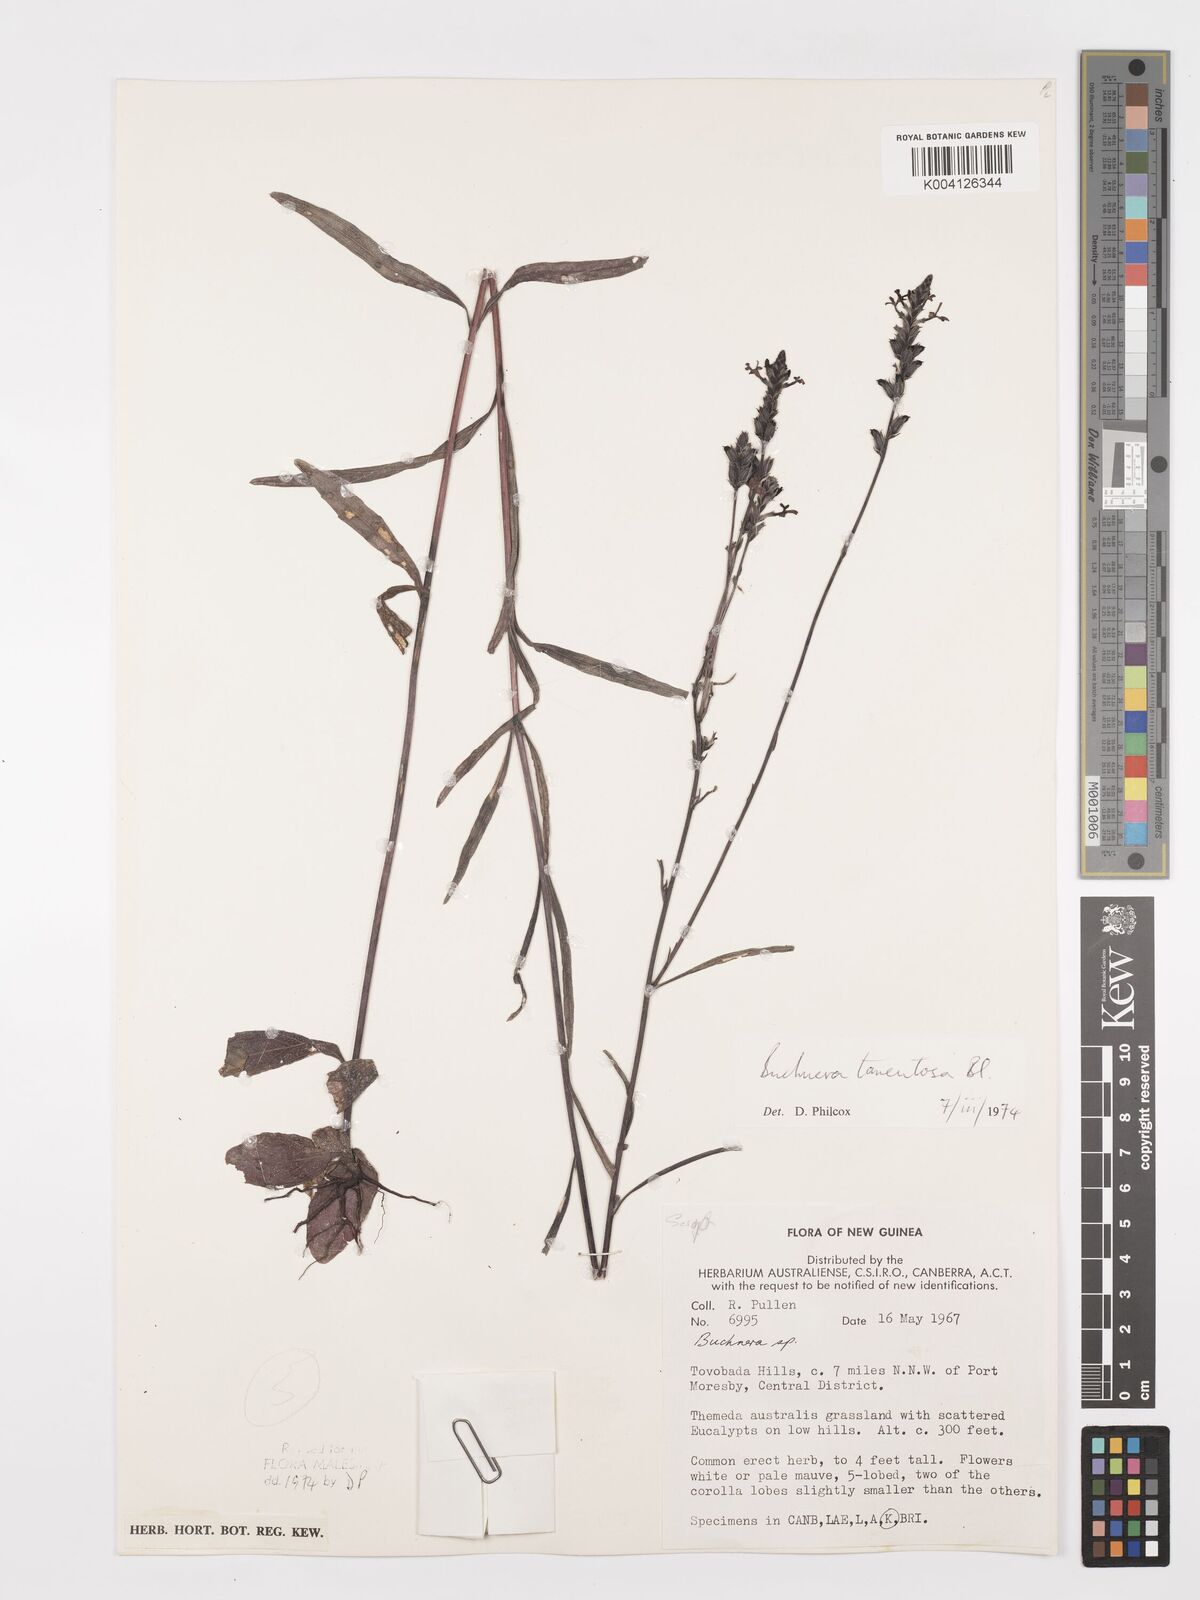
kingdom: Plantae
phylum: Tracheophyta
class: Magnoliopsida
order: Lamiales
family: Orobanchaceae
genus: Buchnera
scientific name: Buchnera tomentosa
